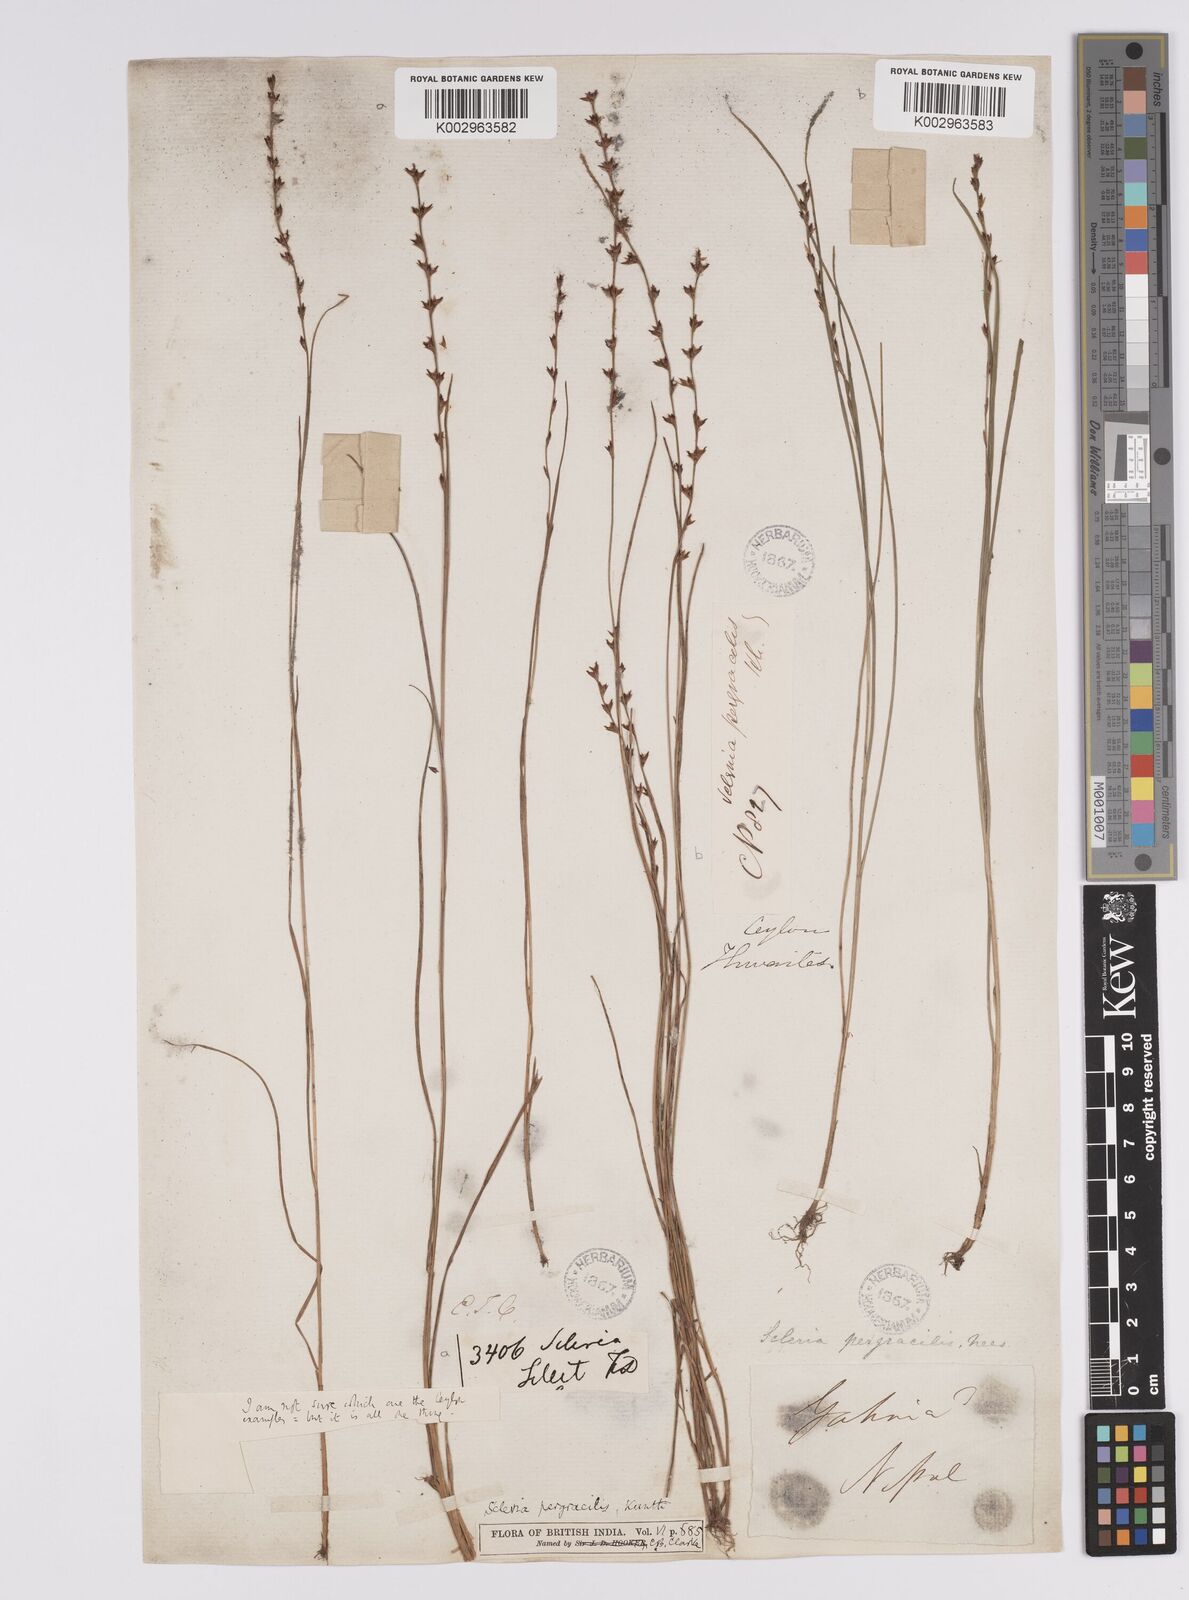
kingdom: Plantae
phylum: Tracheophyta
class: Liliopsida
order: Poales
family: Cyperaceae
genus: Scleria
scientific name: Scleria pergracilis
